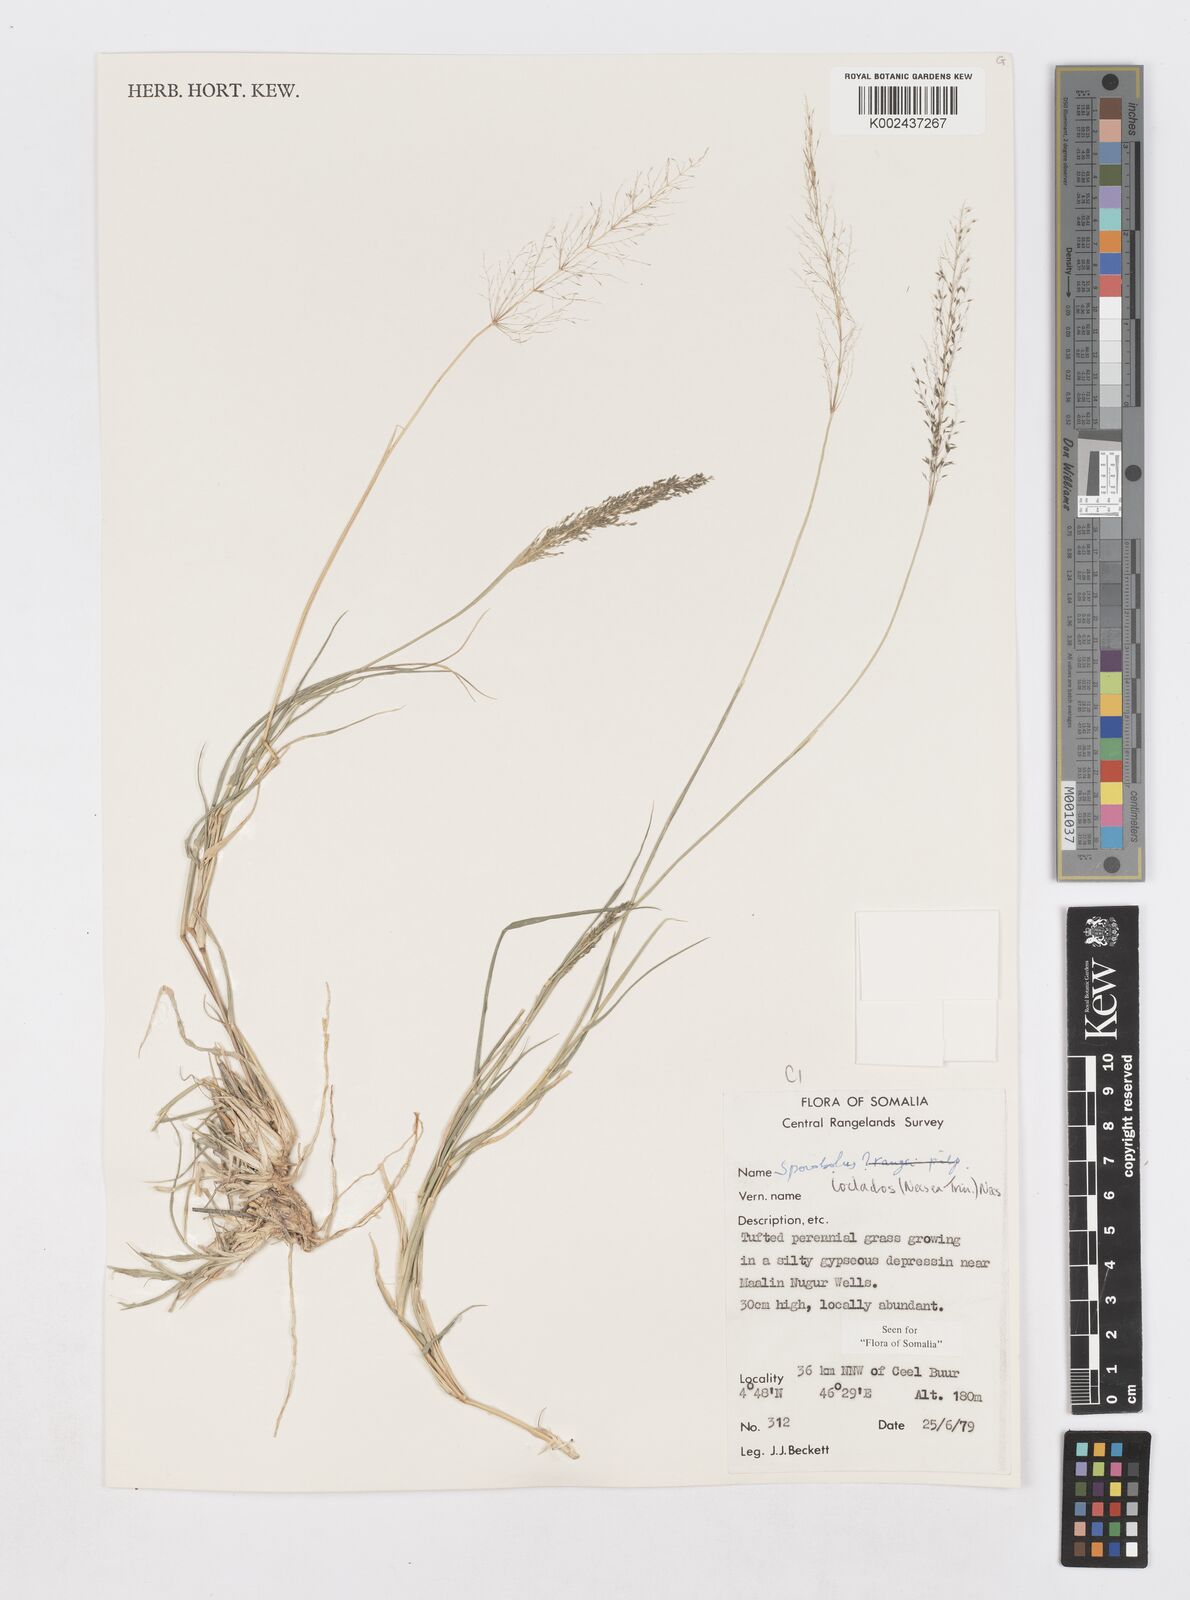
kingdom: Plantae
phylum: Tracheophyta
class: Liliopsida
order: Poales
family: Poaceae
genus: Sporobolus
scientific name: Sporobolus ioclados
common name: Pan dropseed
